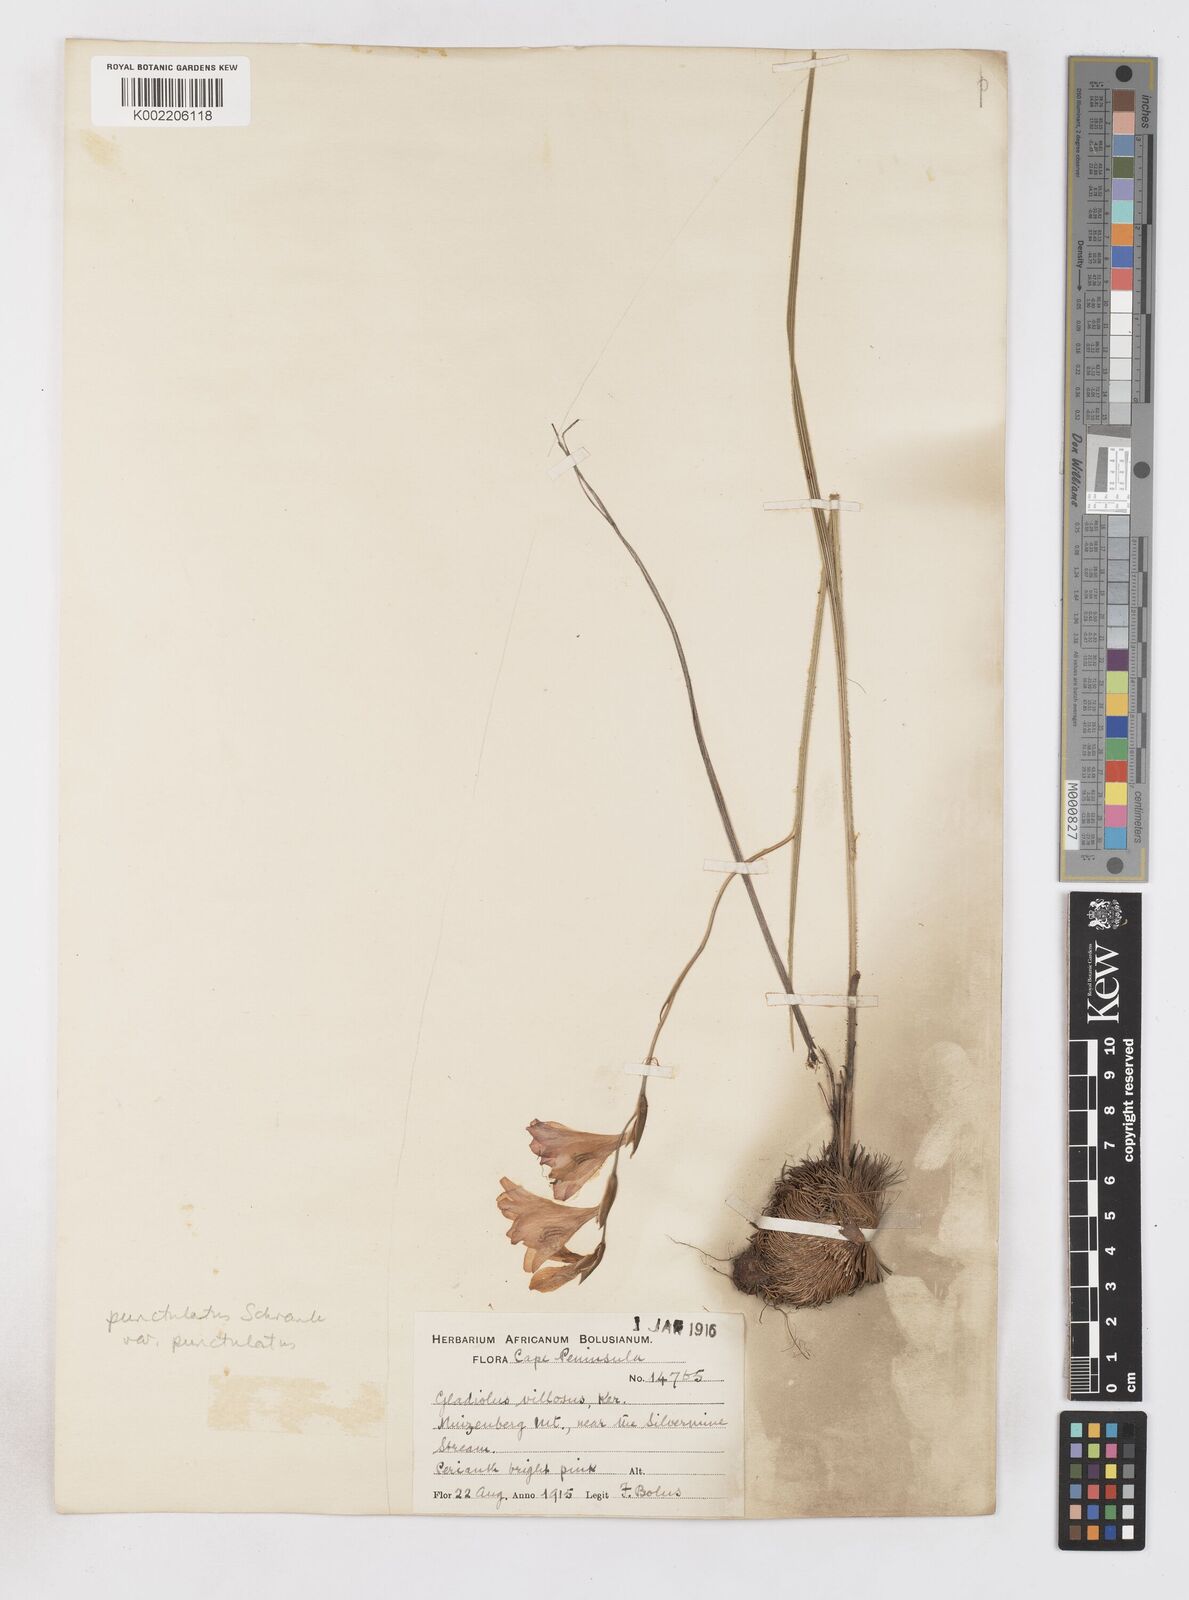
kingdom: Plantae
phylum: Tracheophyta
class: Liliopsida
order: Asparagales
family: Iridaceae
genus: Gladiolus
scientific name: Gladiolus hirsutus
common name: Small pink afrikaner
